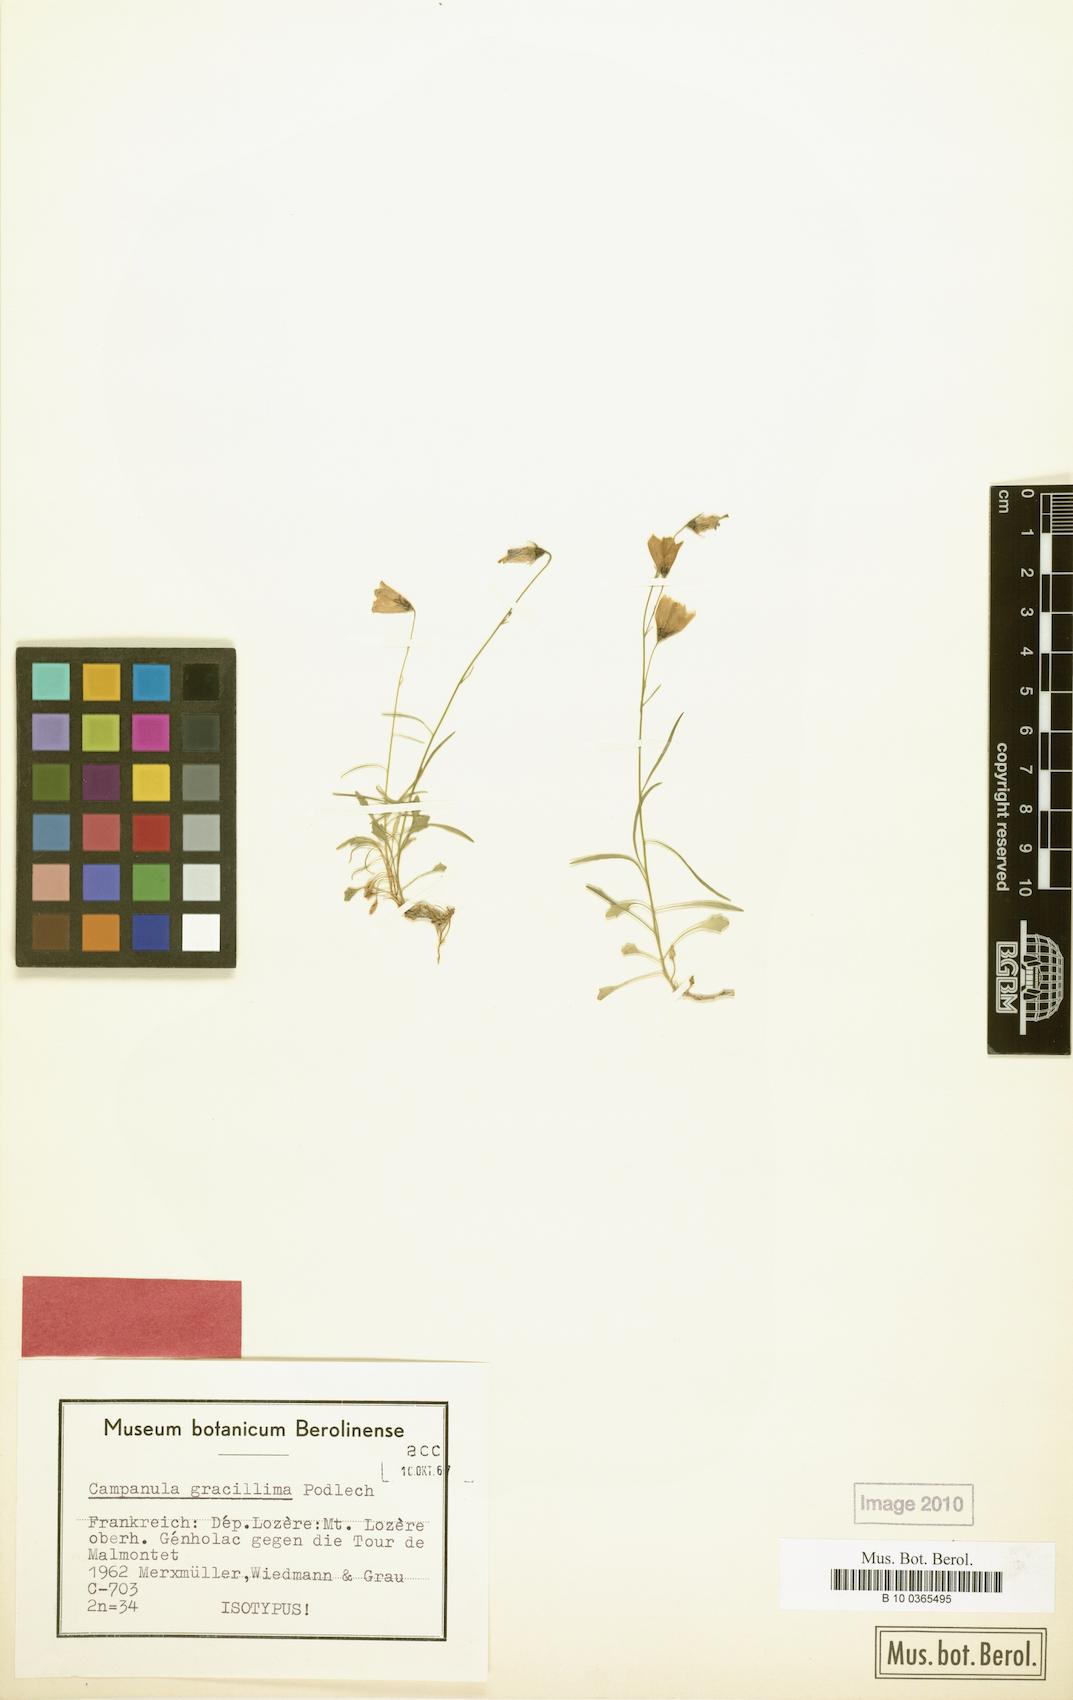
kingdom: Plantae
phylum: Tracheophyta
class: Magnoliopsida
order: Asterales
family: Campanulaceae
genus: Campanula
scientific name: Campanula gracillima
